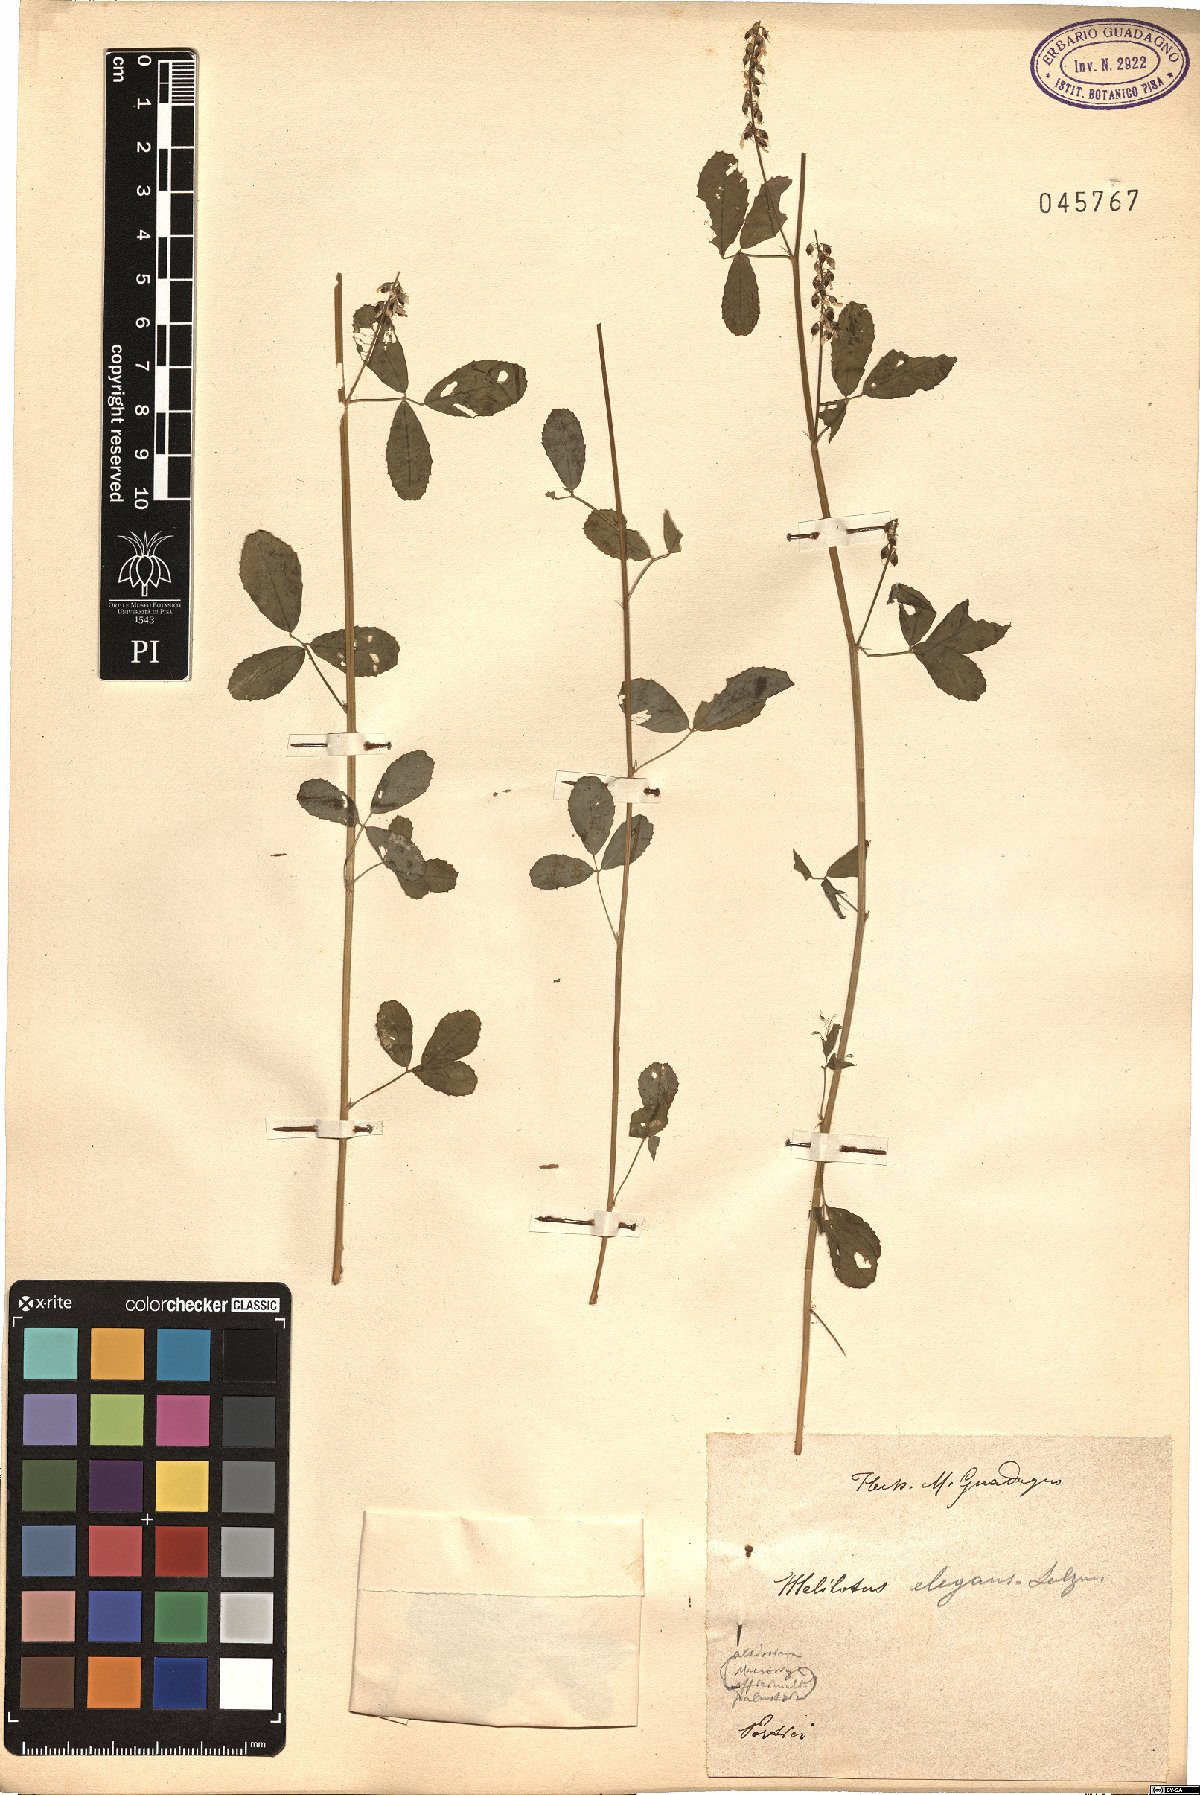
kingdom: Plantae
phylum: Tracheophyta
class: Magnoliopsida
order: Fabales
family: Fabaceae
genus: Melilotus
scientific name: Melilotus elegans
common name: Elegant sweet-clover
